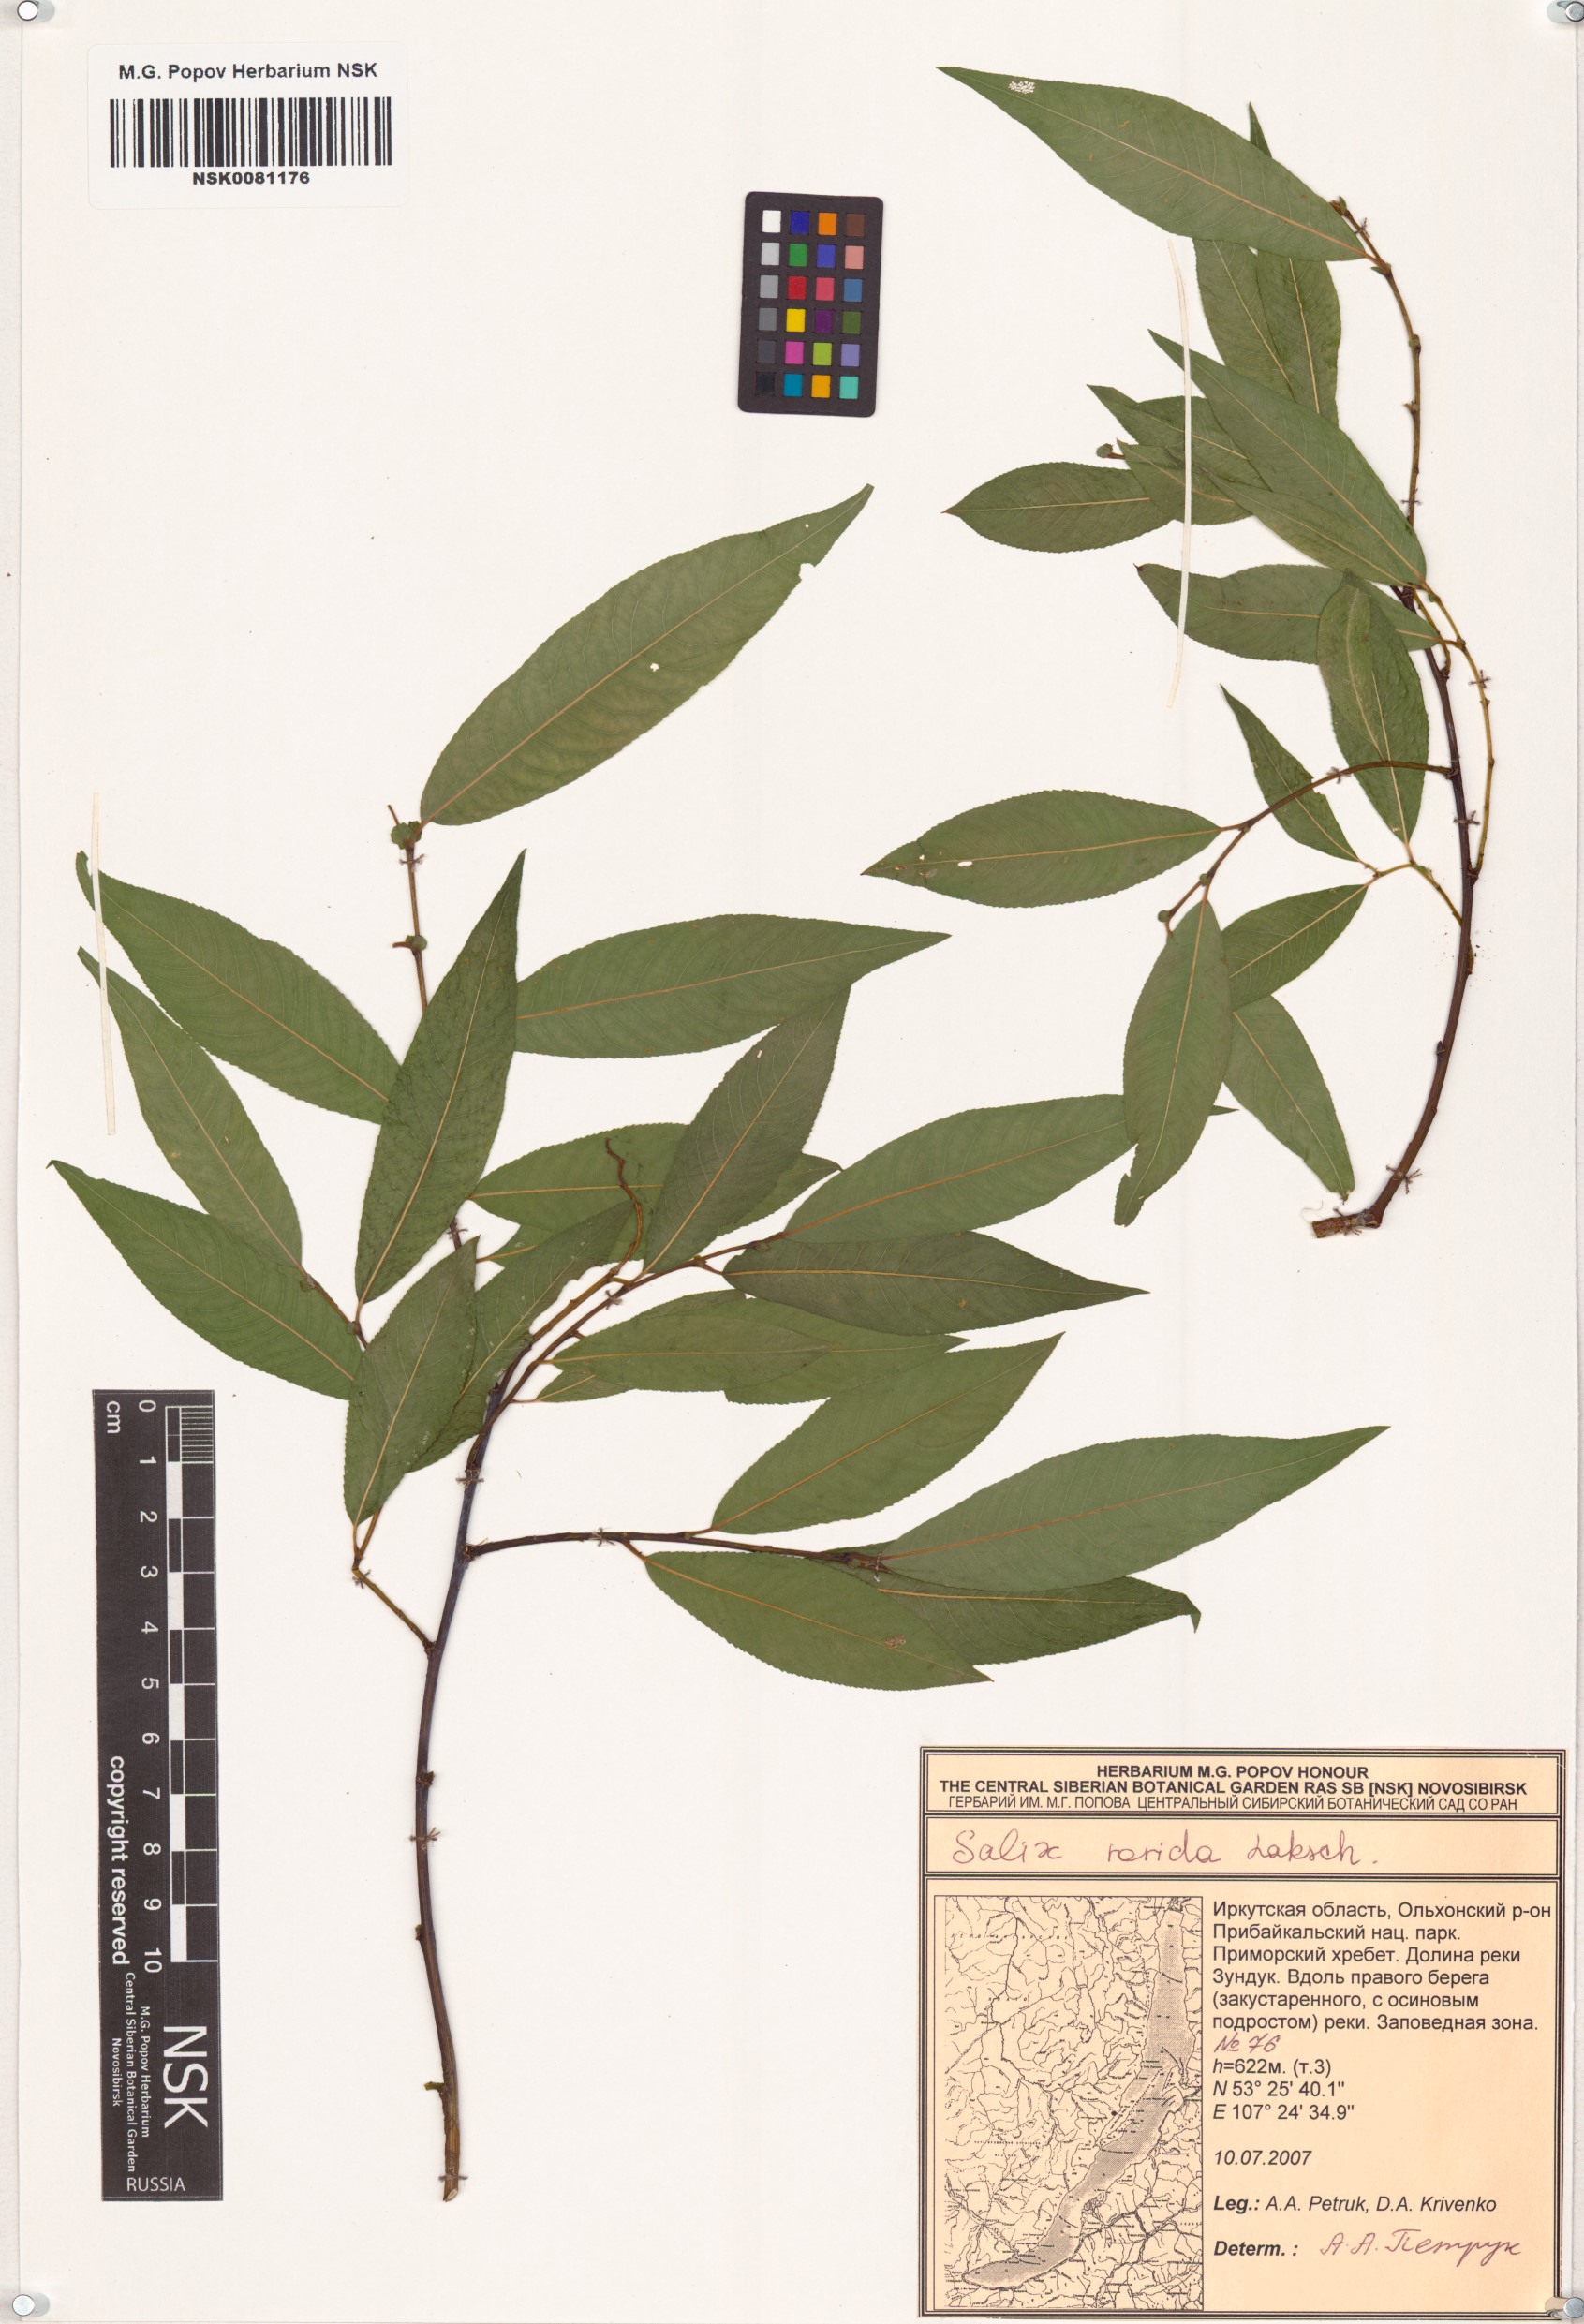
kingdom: Plantae
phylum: Tracheophyta
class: Magnoliopsida
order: Malpighiales
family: Salicaceae
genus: Salix
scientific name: Salix rorida
